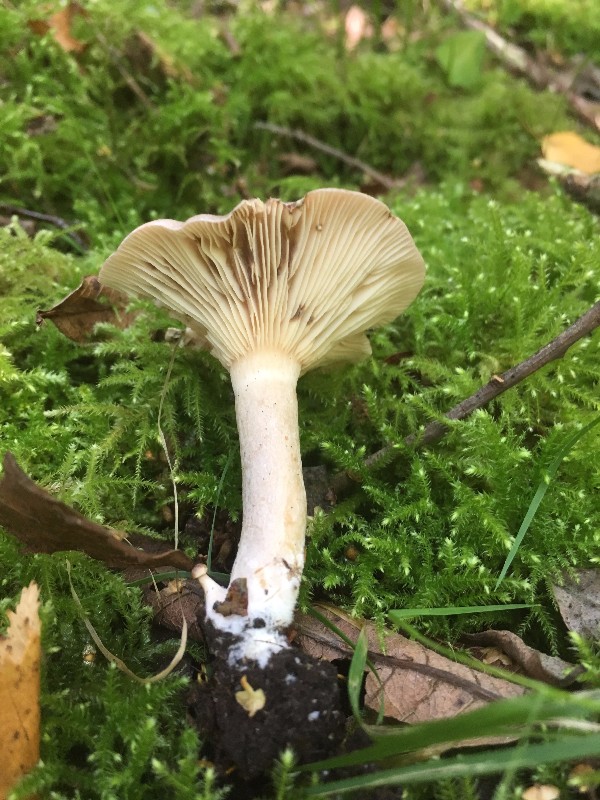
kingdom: Fungi
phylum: Basidiomycota
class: Agaricomycetes
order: Russulales
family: Russulaceae
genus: Lactarius
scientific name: Lactarius vietus
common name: violetgrå mælkehat
